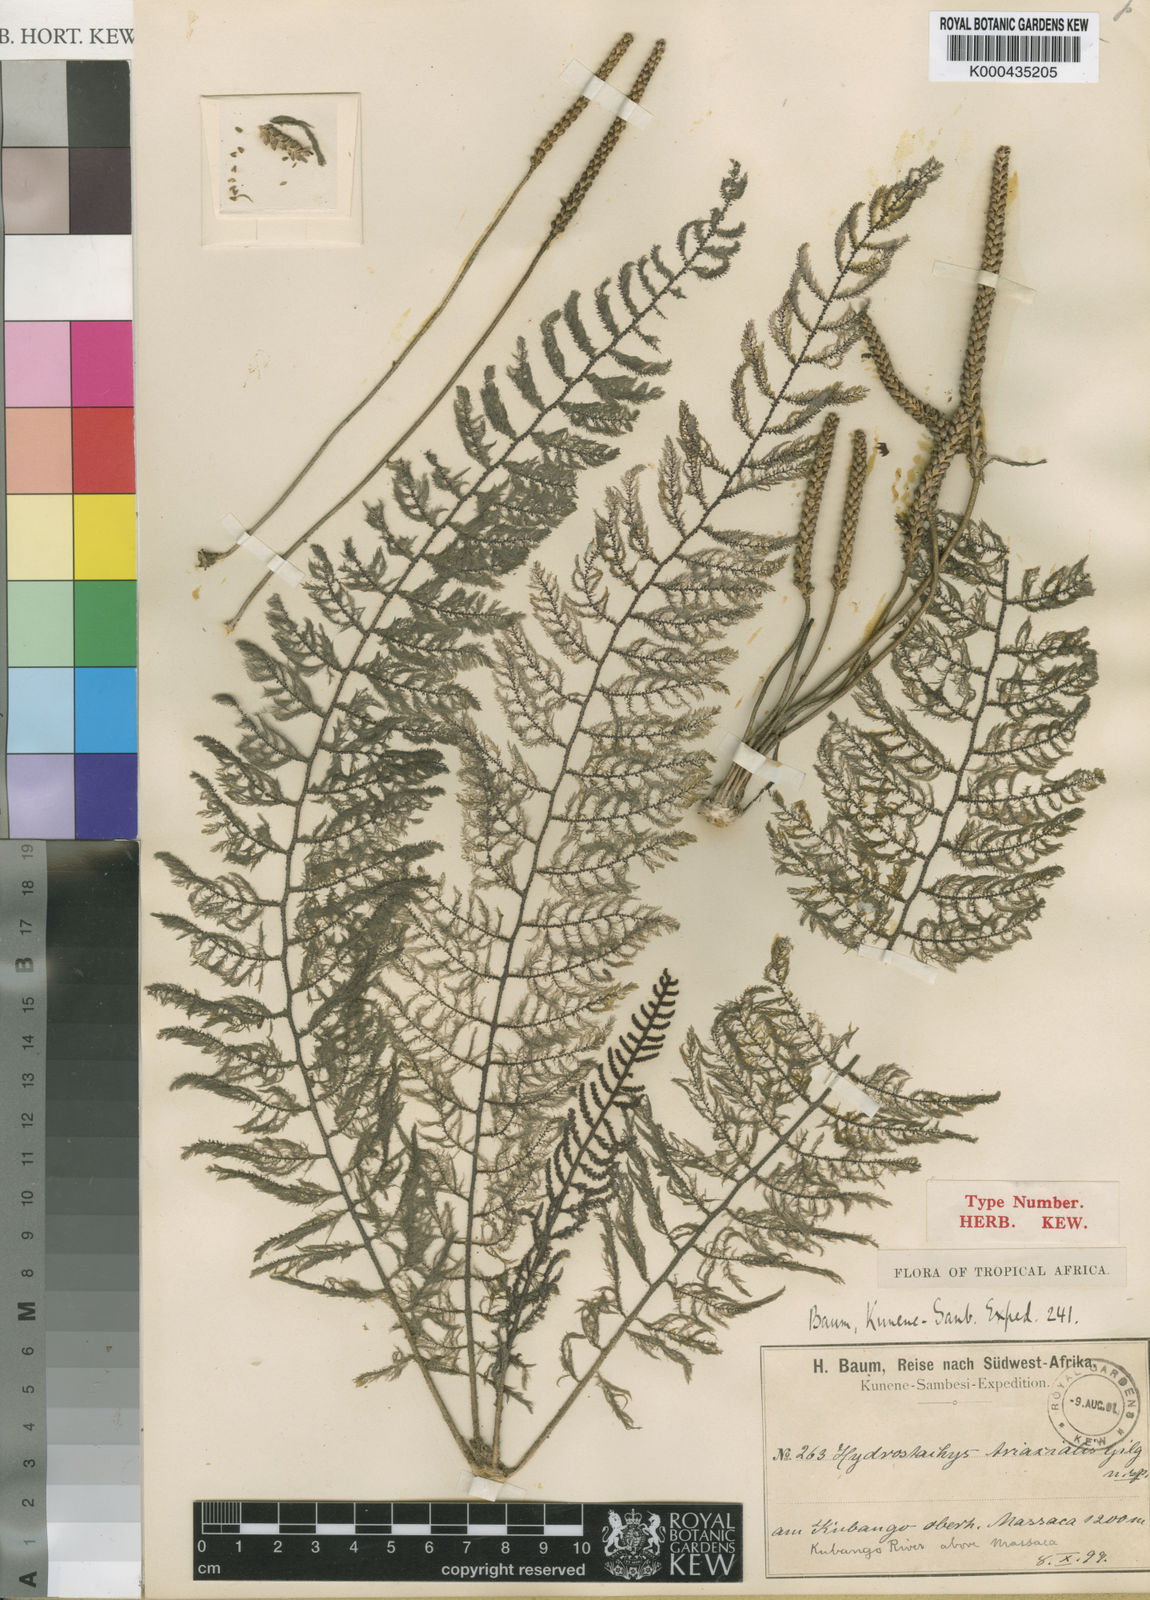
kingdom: Plantae
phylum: Tracheophyta
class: Magnoliopsida
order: Cornales
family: Hydrostachyaceae
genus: Hydrostachys
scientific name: Hydrostachys triaxialis
